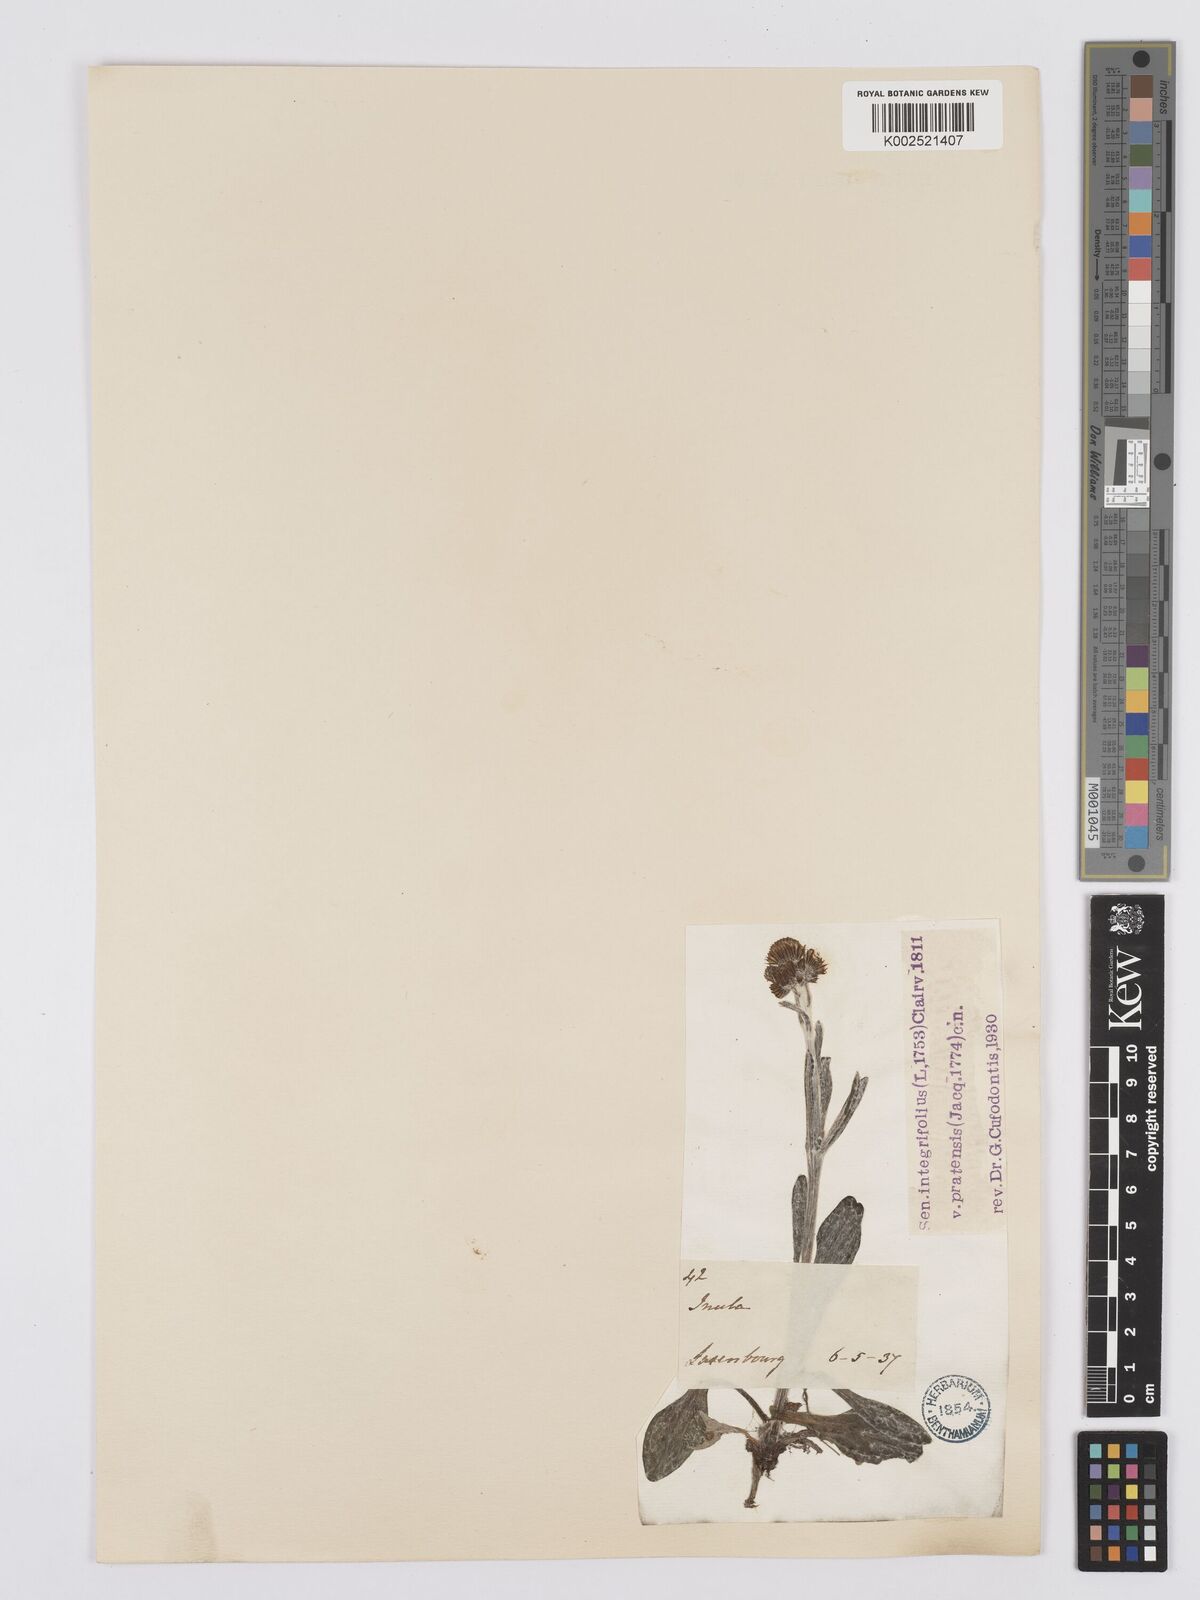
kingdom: Plantae
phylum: Tracheophyta
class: Magnoliopsida
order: Asterales
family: Asteraceae
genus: Tephroseris
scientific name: Tephroseris integrifolia
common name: Field fleawort
